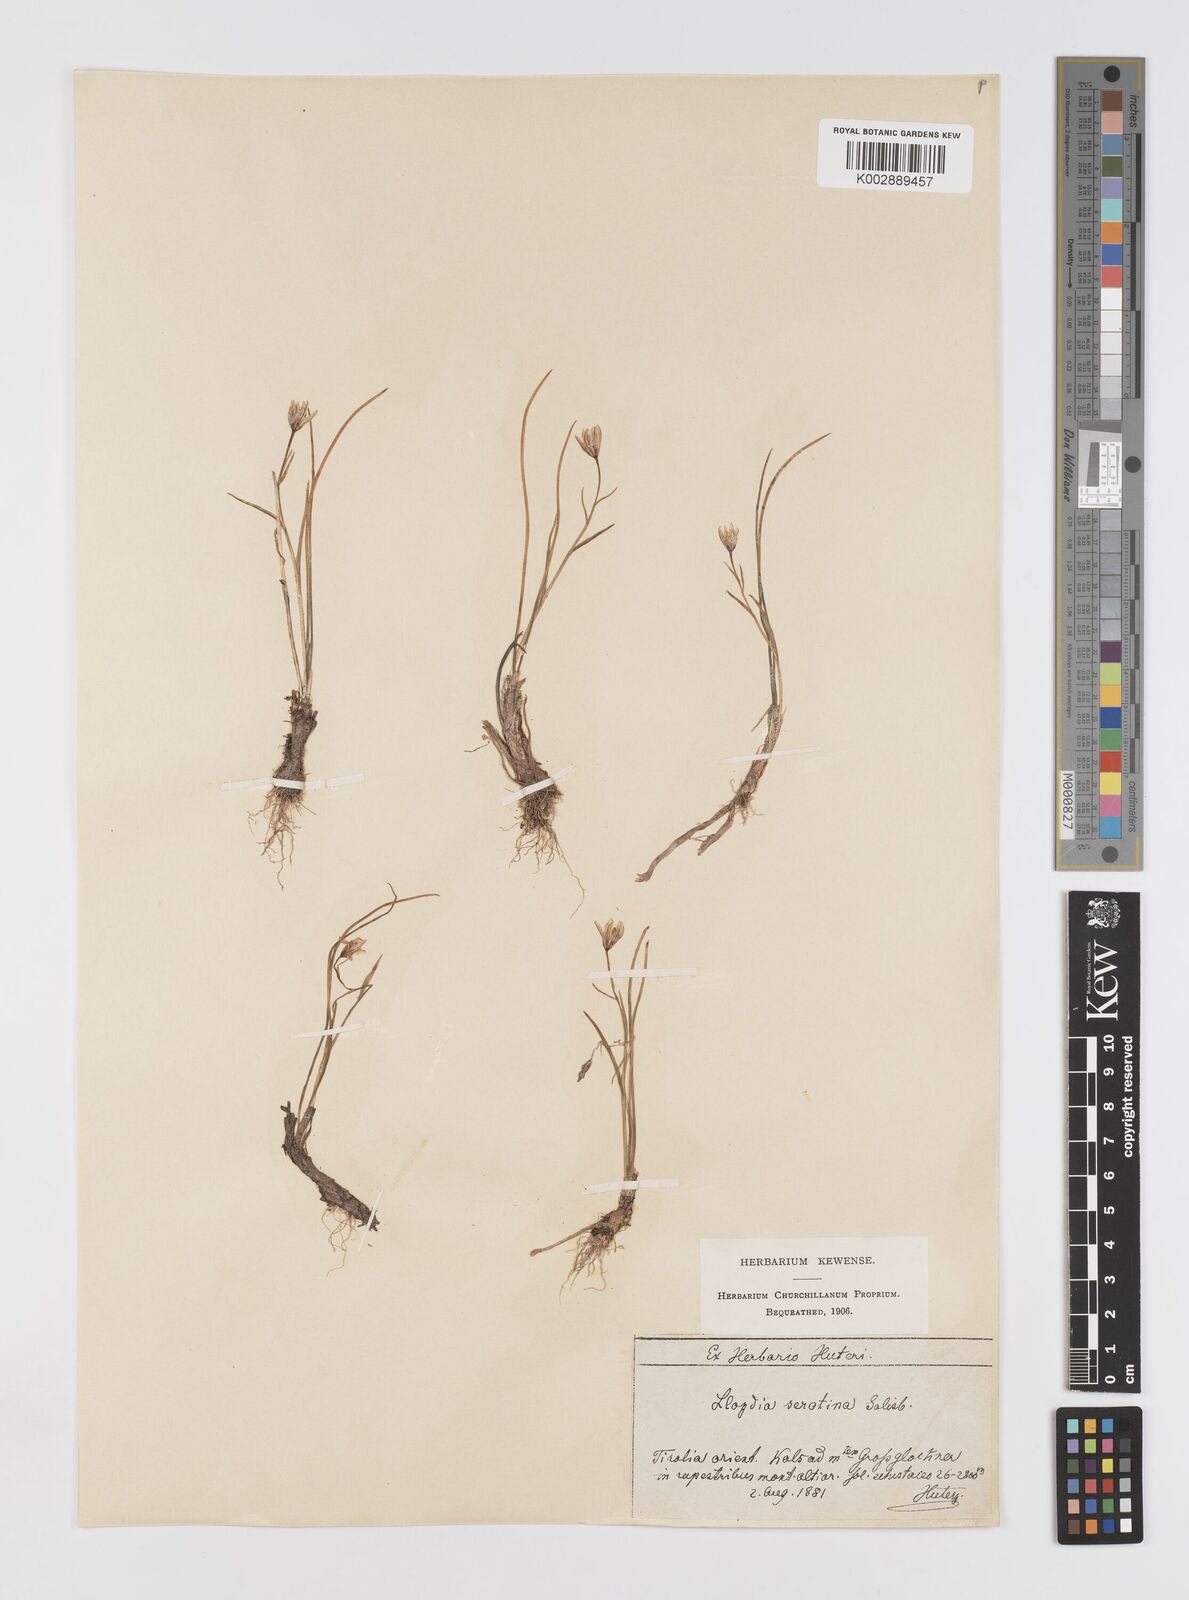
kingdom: Plantae
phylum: Tracheophyta
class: Liliopsida
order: Liliales
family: Liliaceae
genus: Gagea
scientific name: Gagea
